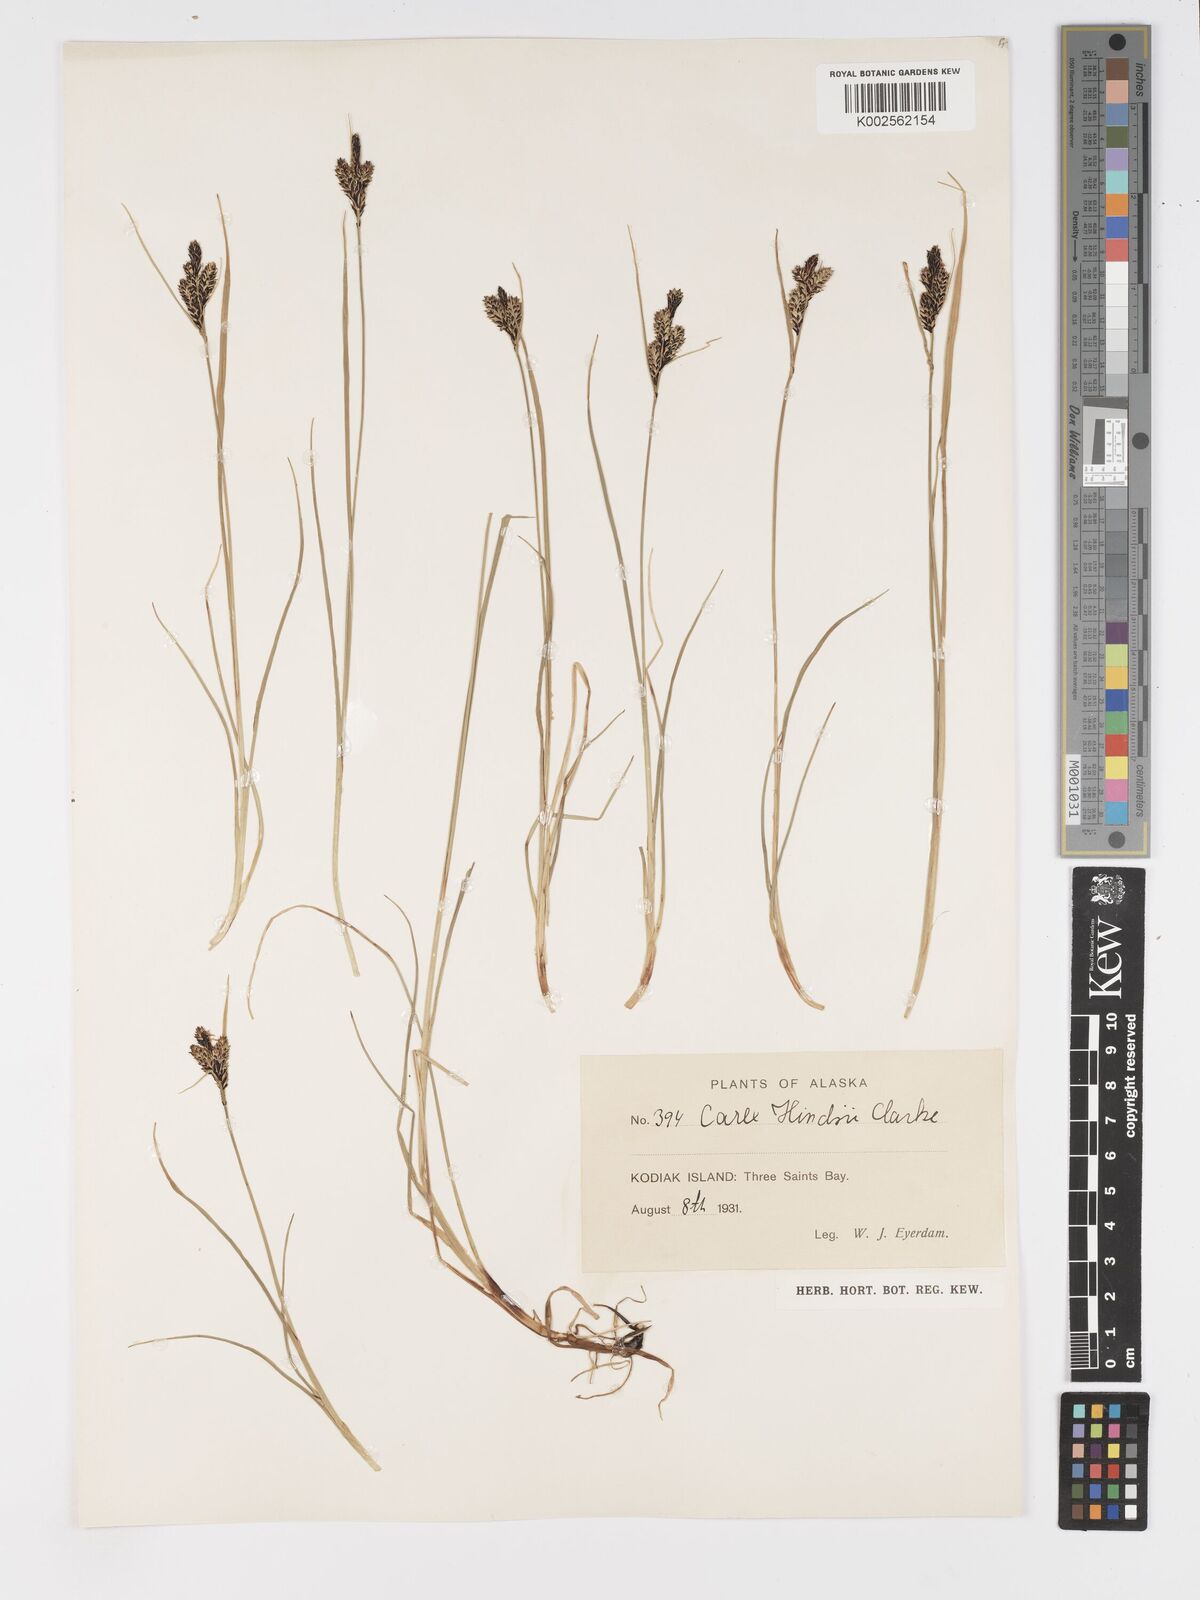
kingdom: Plantae
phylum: Tracheophyta
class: Liliopsida
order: Poales
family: Cyperaceae
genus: Carex
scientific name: Carex kelloggii
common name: Kellogg's sedge
